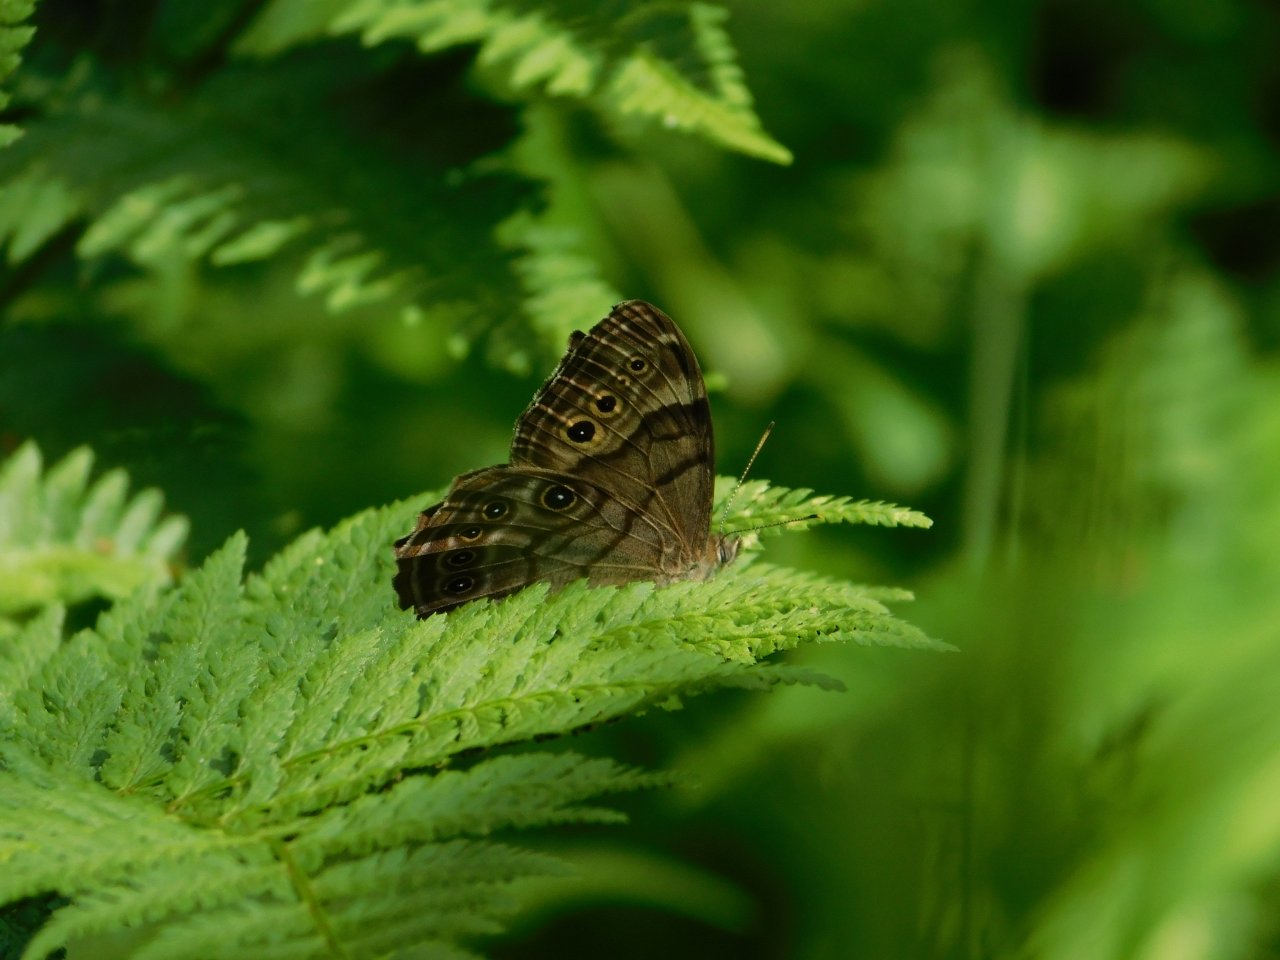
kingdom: Animalia
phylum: Arthropoda
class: Insecta
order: Lepidoptera
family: Nymphalidae
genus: Lethe
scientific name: Lethe anthedon
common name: Northern Pearly-Eye
